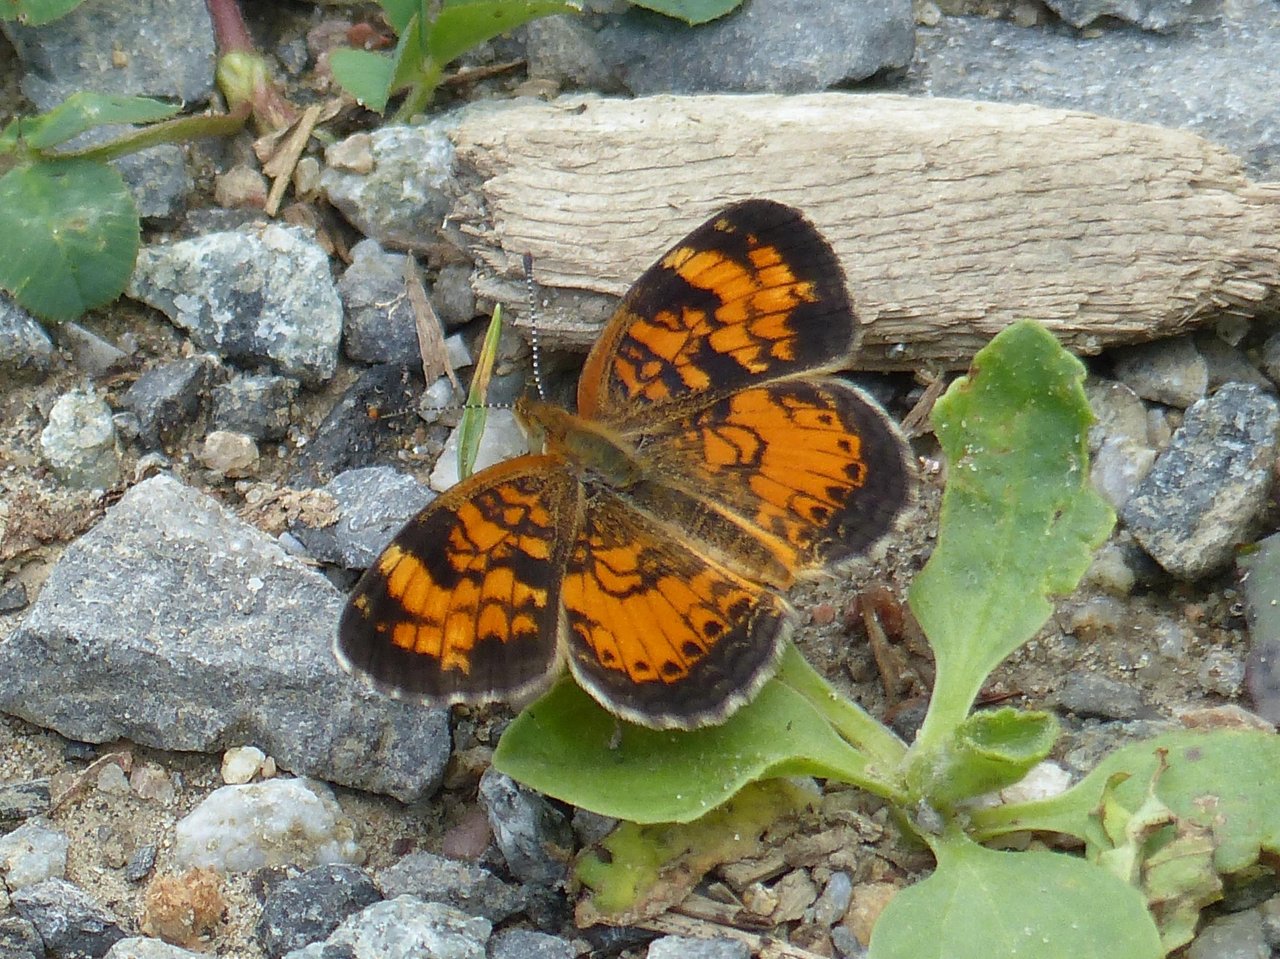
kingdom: Animalia
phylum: Arthropoda
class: Insecta
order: Lepidoptera
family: Nymphalidae
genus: Phyciodes
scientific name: Phyciodes tharos
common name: Northern Crescent
